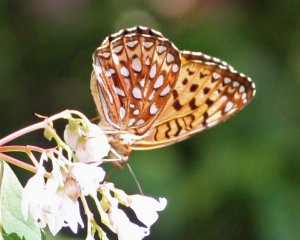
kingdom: Animalia
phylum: Arthropoda
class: Insecta
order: Lepidoptera
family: Nymphalidae
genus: Speyeria
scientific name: Speyeria cybele
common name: Great Spangled Fritillary
